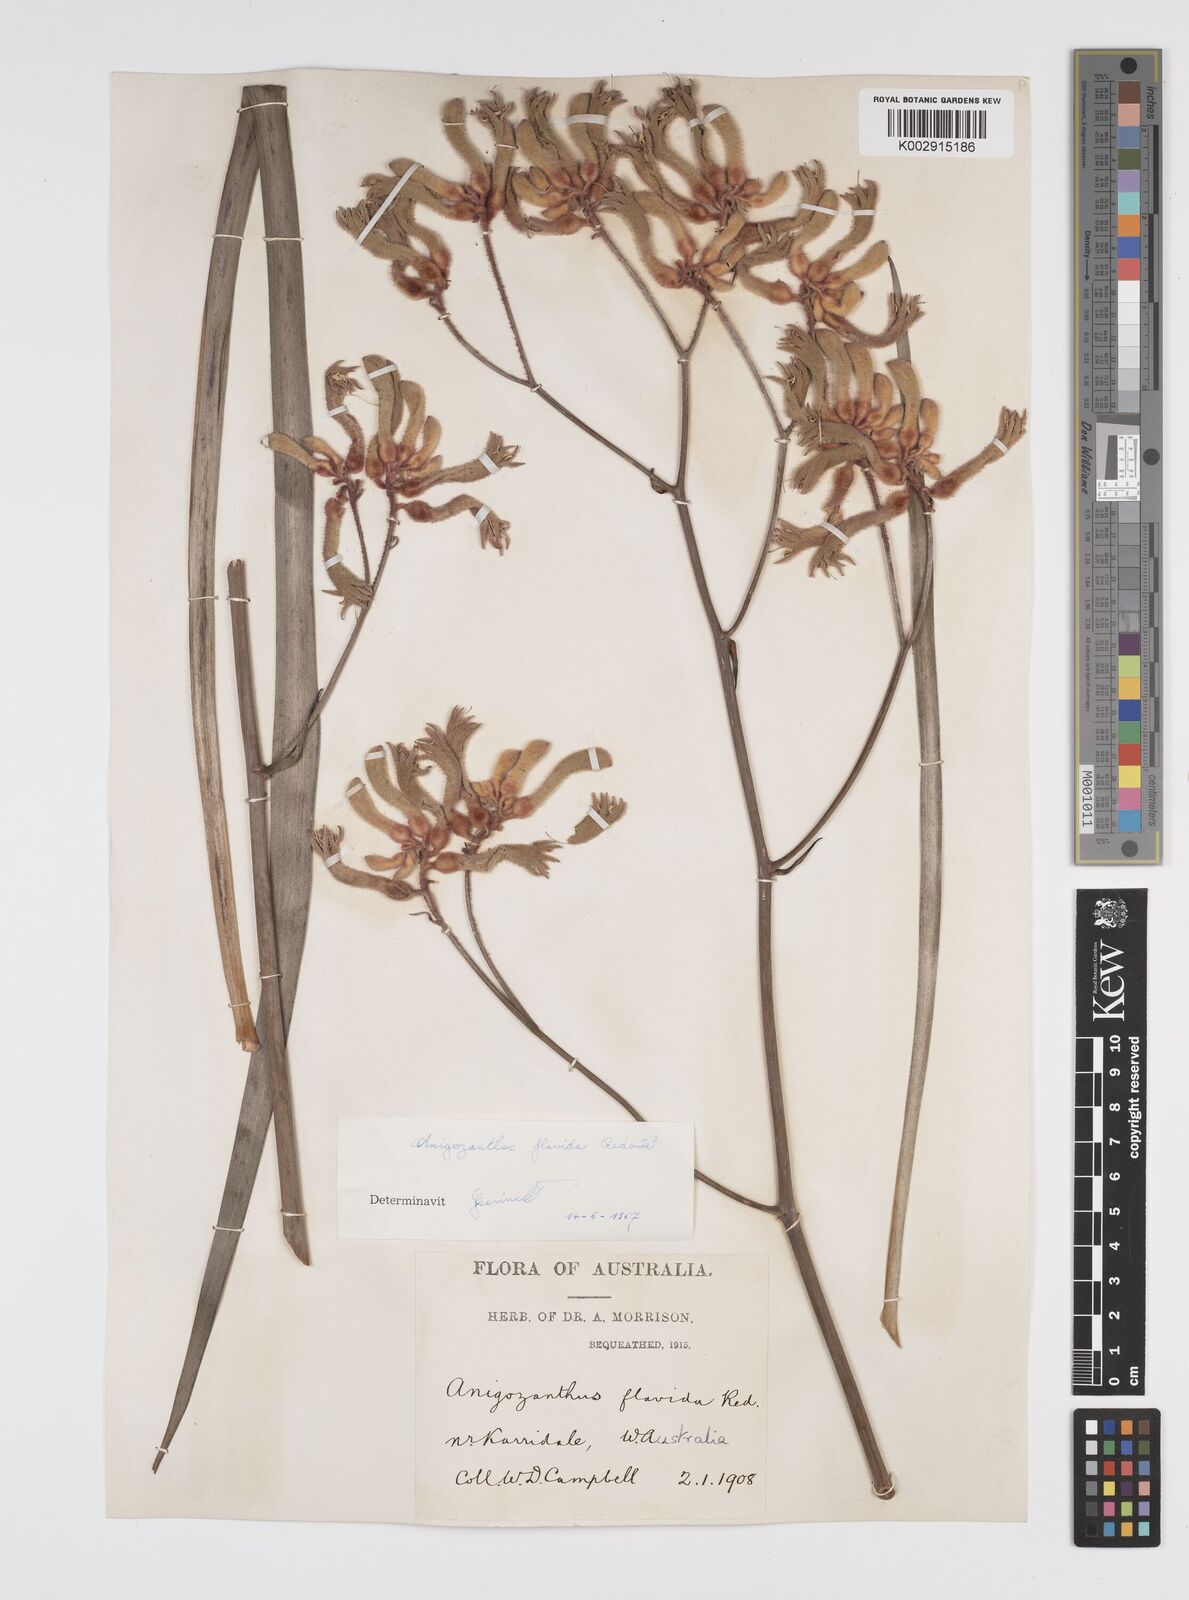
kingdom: Plantae
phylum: Tracheophyta
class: Liliopsida
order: Commelinales
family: Haemodoraceae
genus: Anigozanthos
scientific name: Anigozanthos flavidus
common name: Evergreen kangaroo-paw
